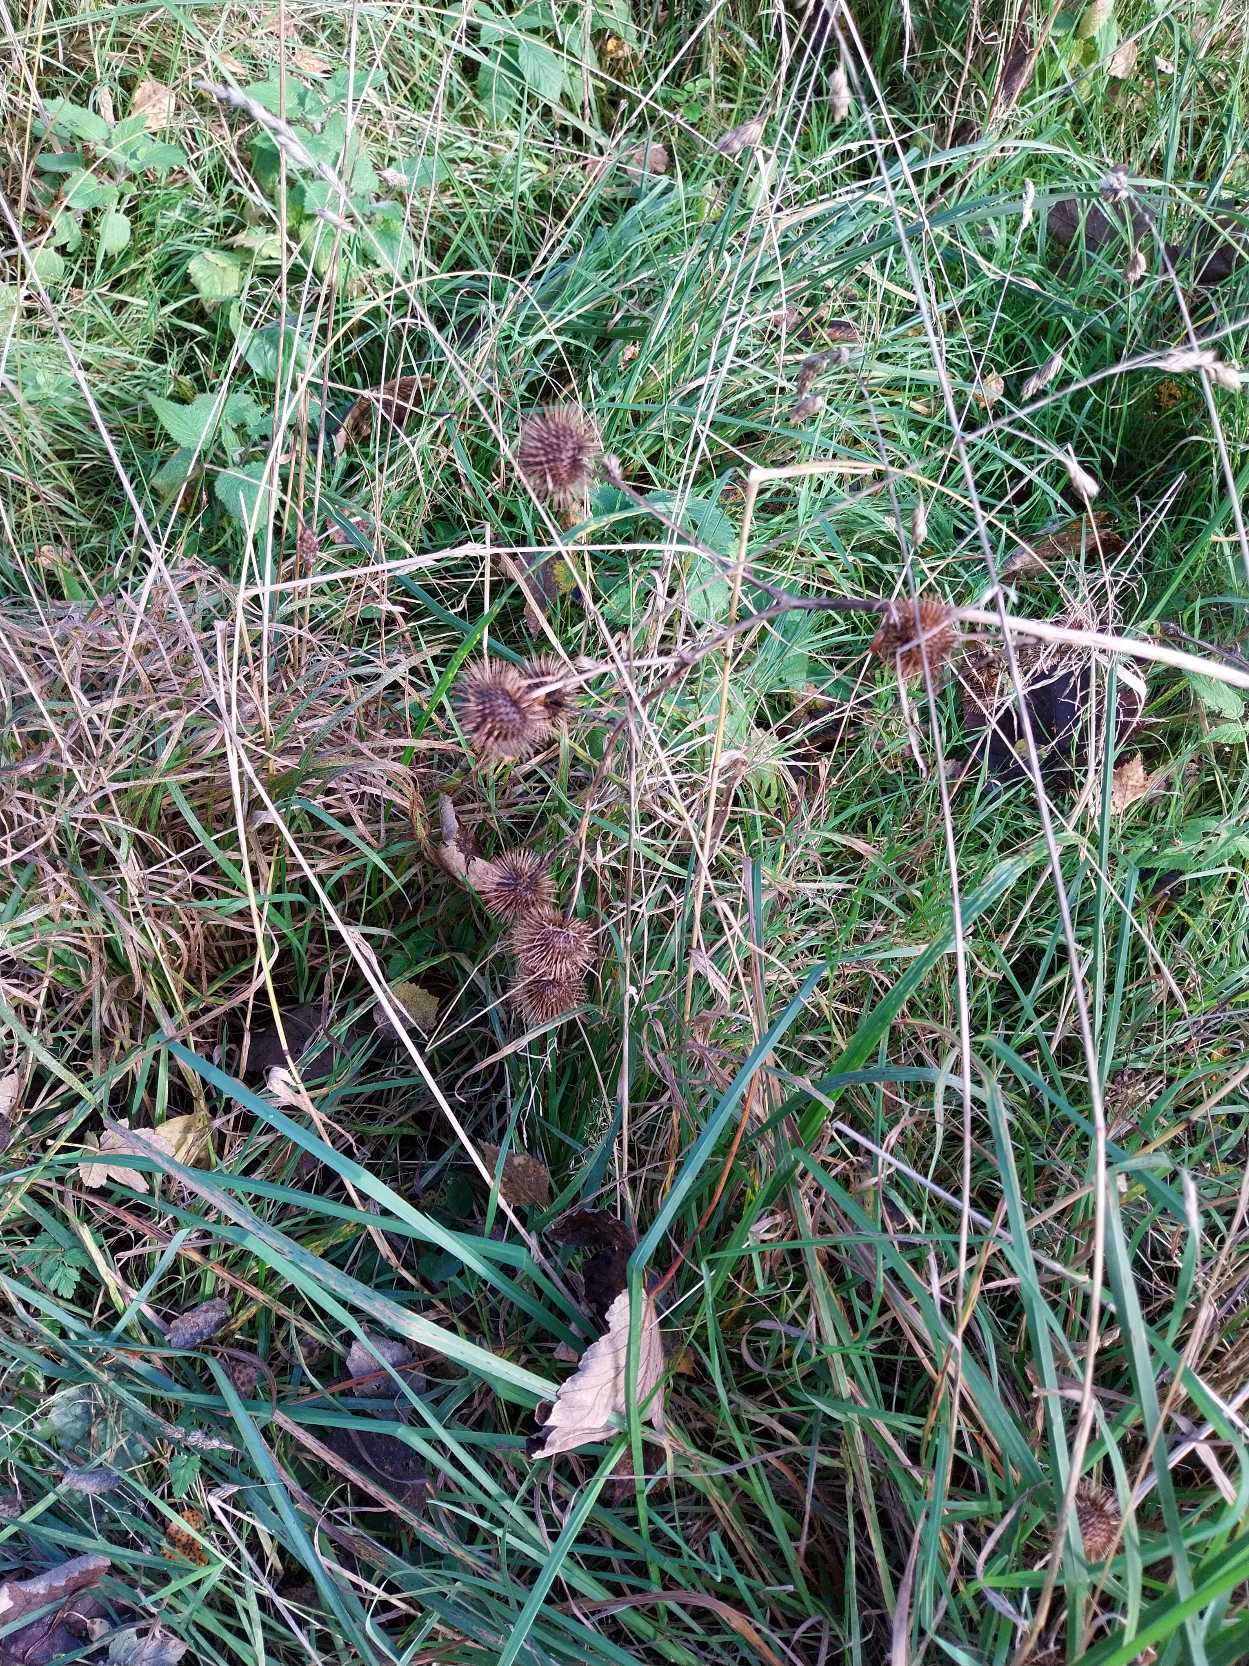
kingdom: Plantae
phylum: Tracheophyta
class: Magnoliopsida
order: Asterales
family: Asteraceae
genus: Arctium
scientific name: Arctium nemorosum
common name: Skov-burre
